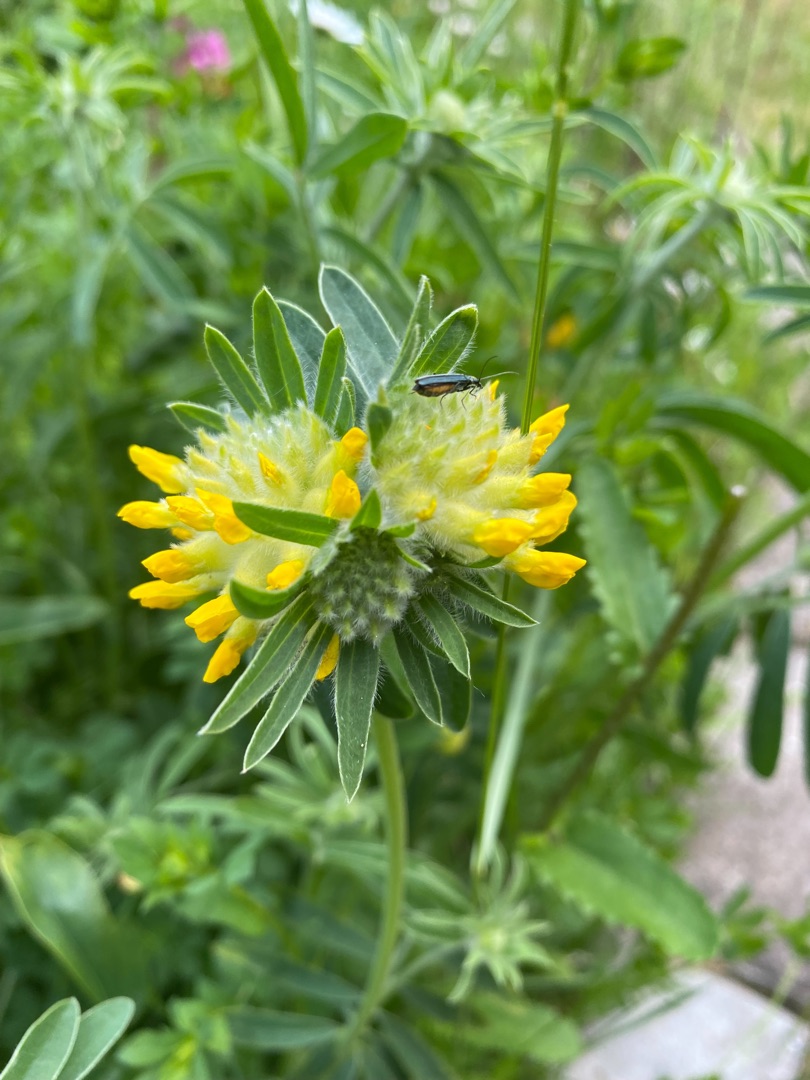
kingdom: Plantae
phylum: Tracheophyta
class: Magnoliopsida
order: Fabales
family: Fabaceae
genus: Anthyllis
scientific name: Anthyllis vulneraria
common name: Rundbælg
